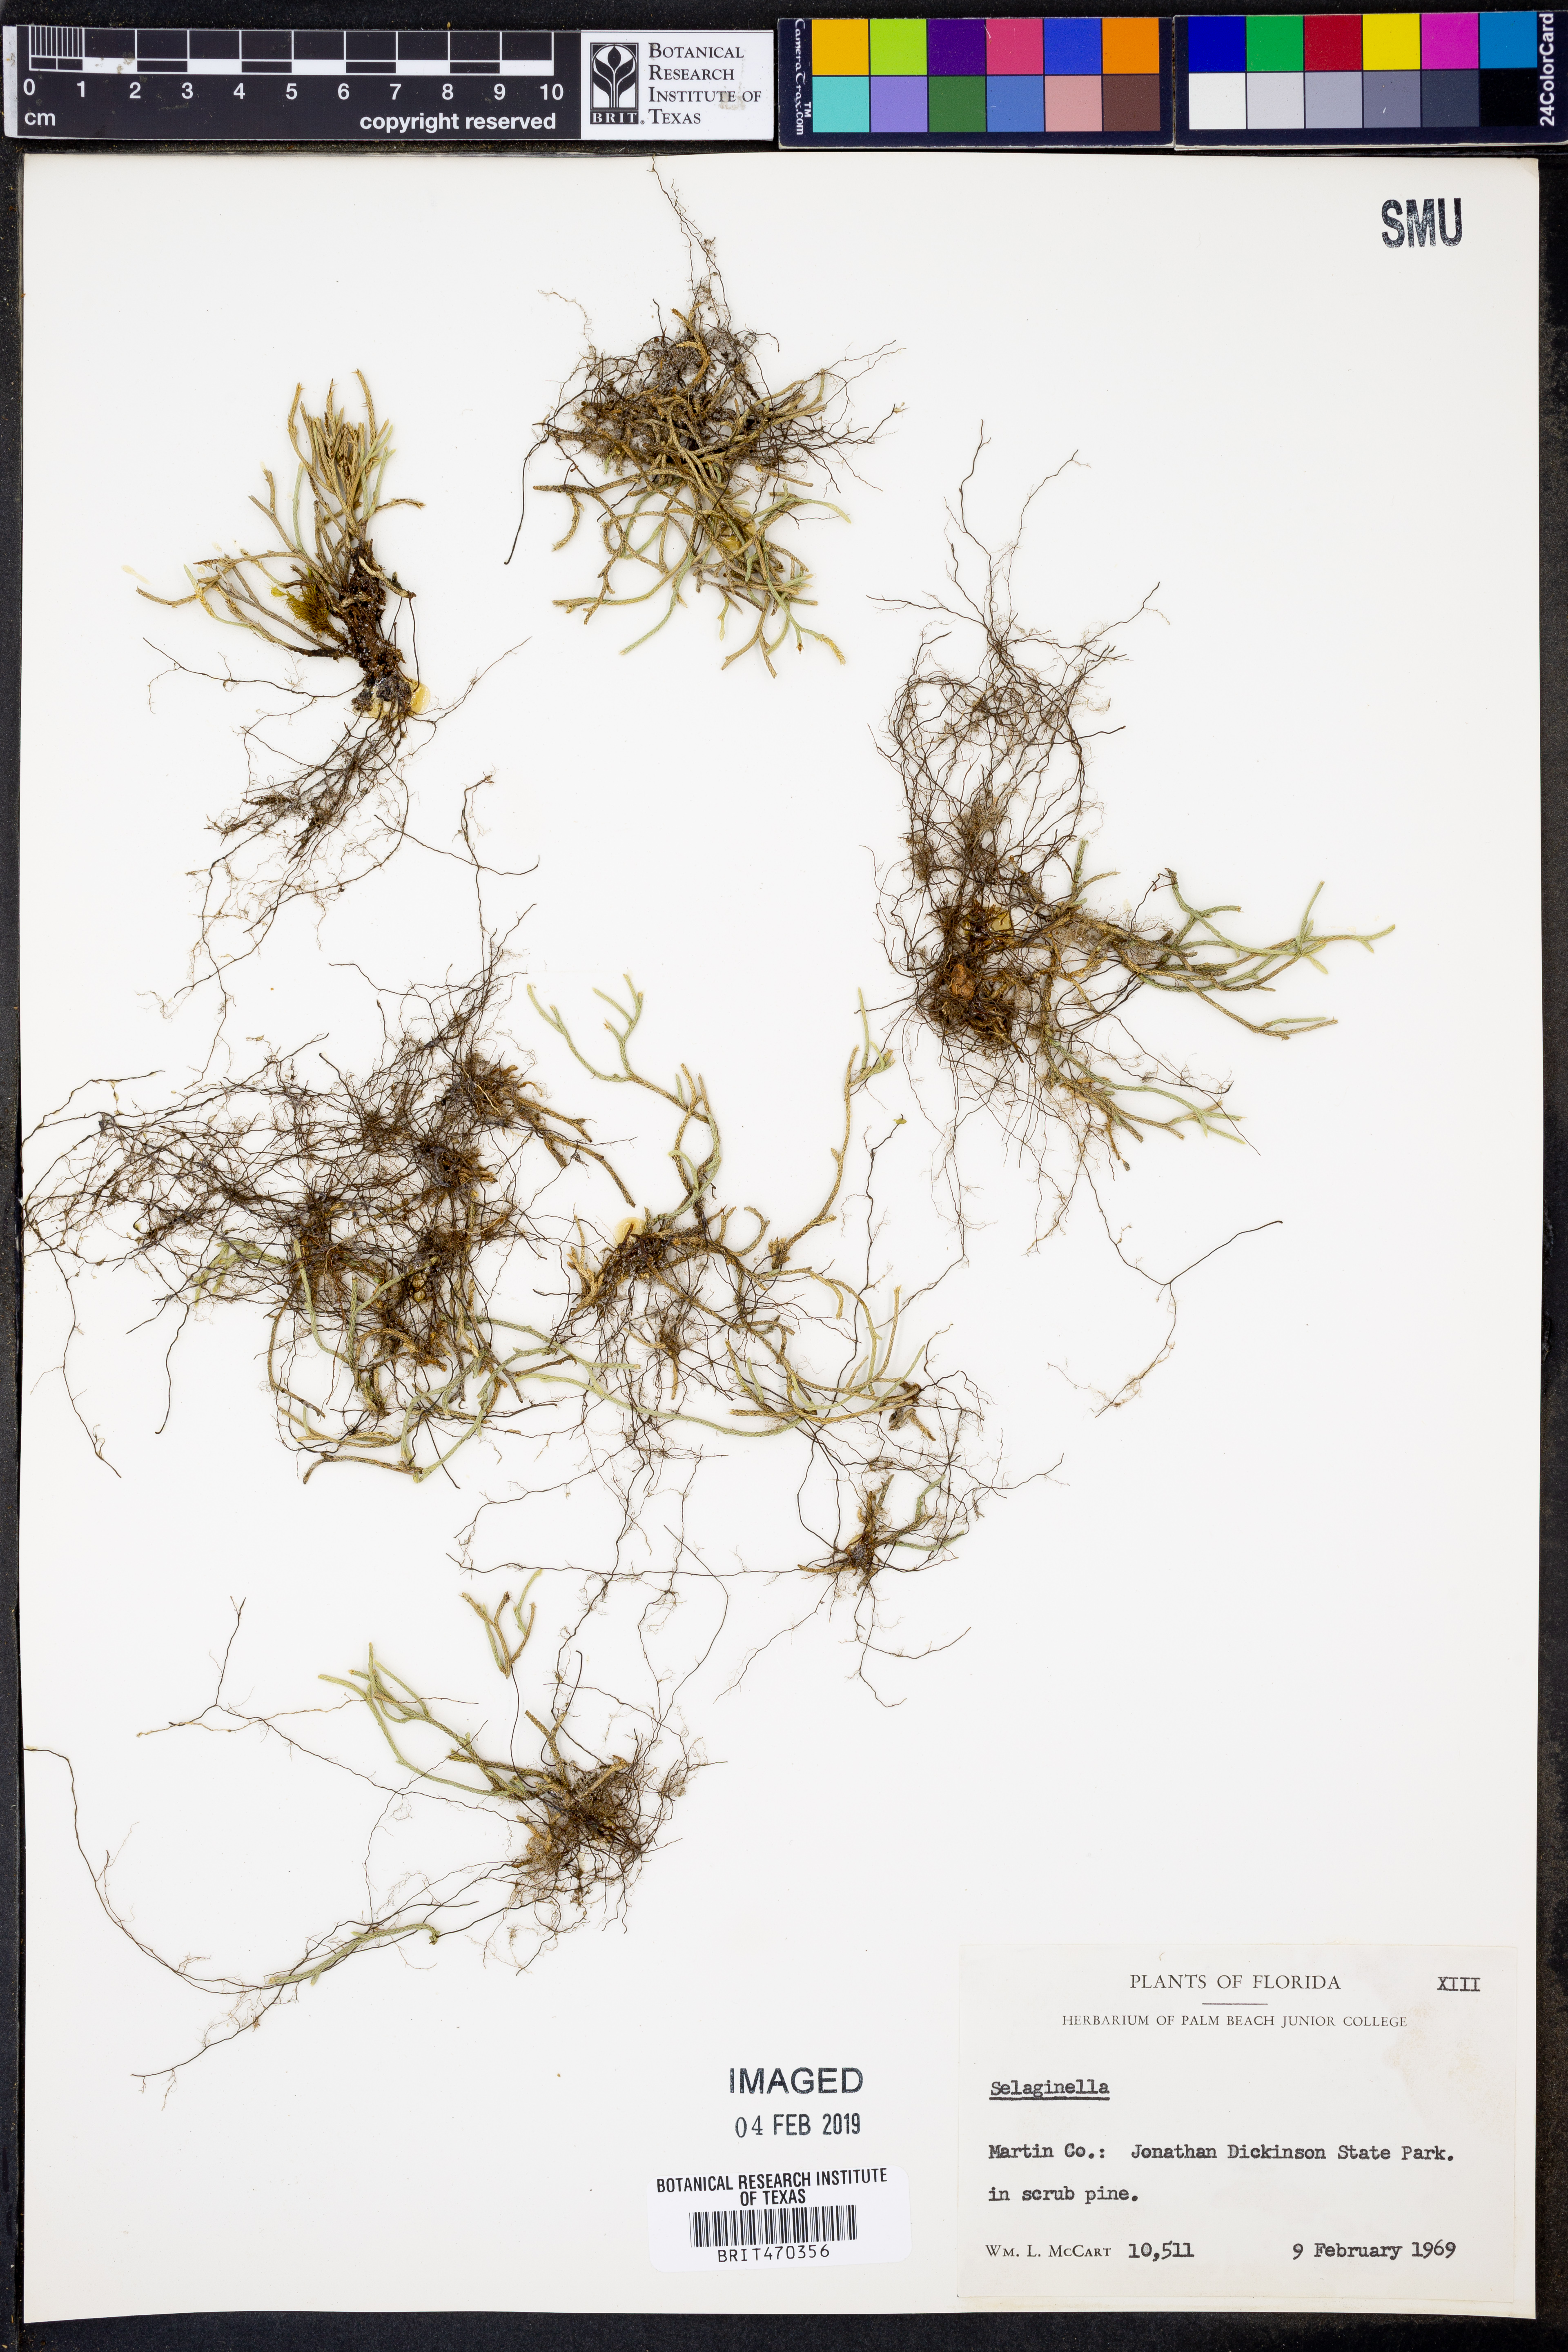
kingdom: Plantae
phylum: Tracheophyta
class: Lycopodiopsida
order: Selaginellales
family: Selaginellaceae
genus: Selaginella
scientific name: Selaginella
